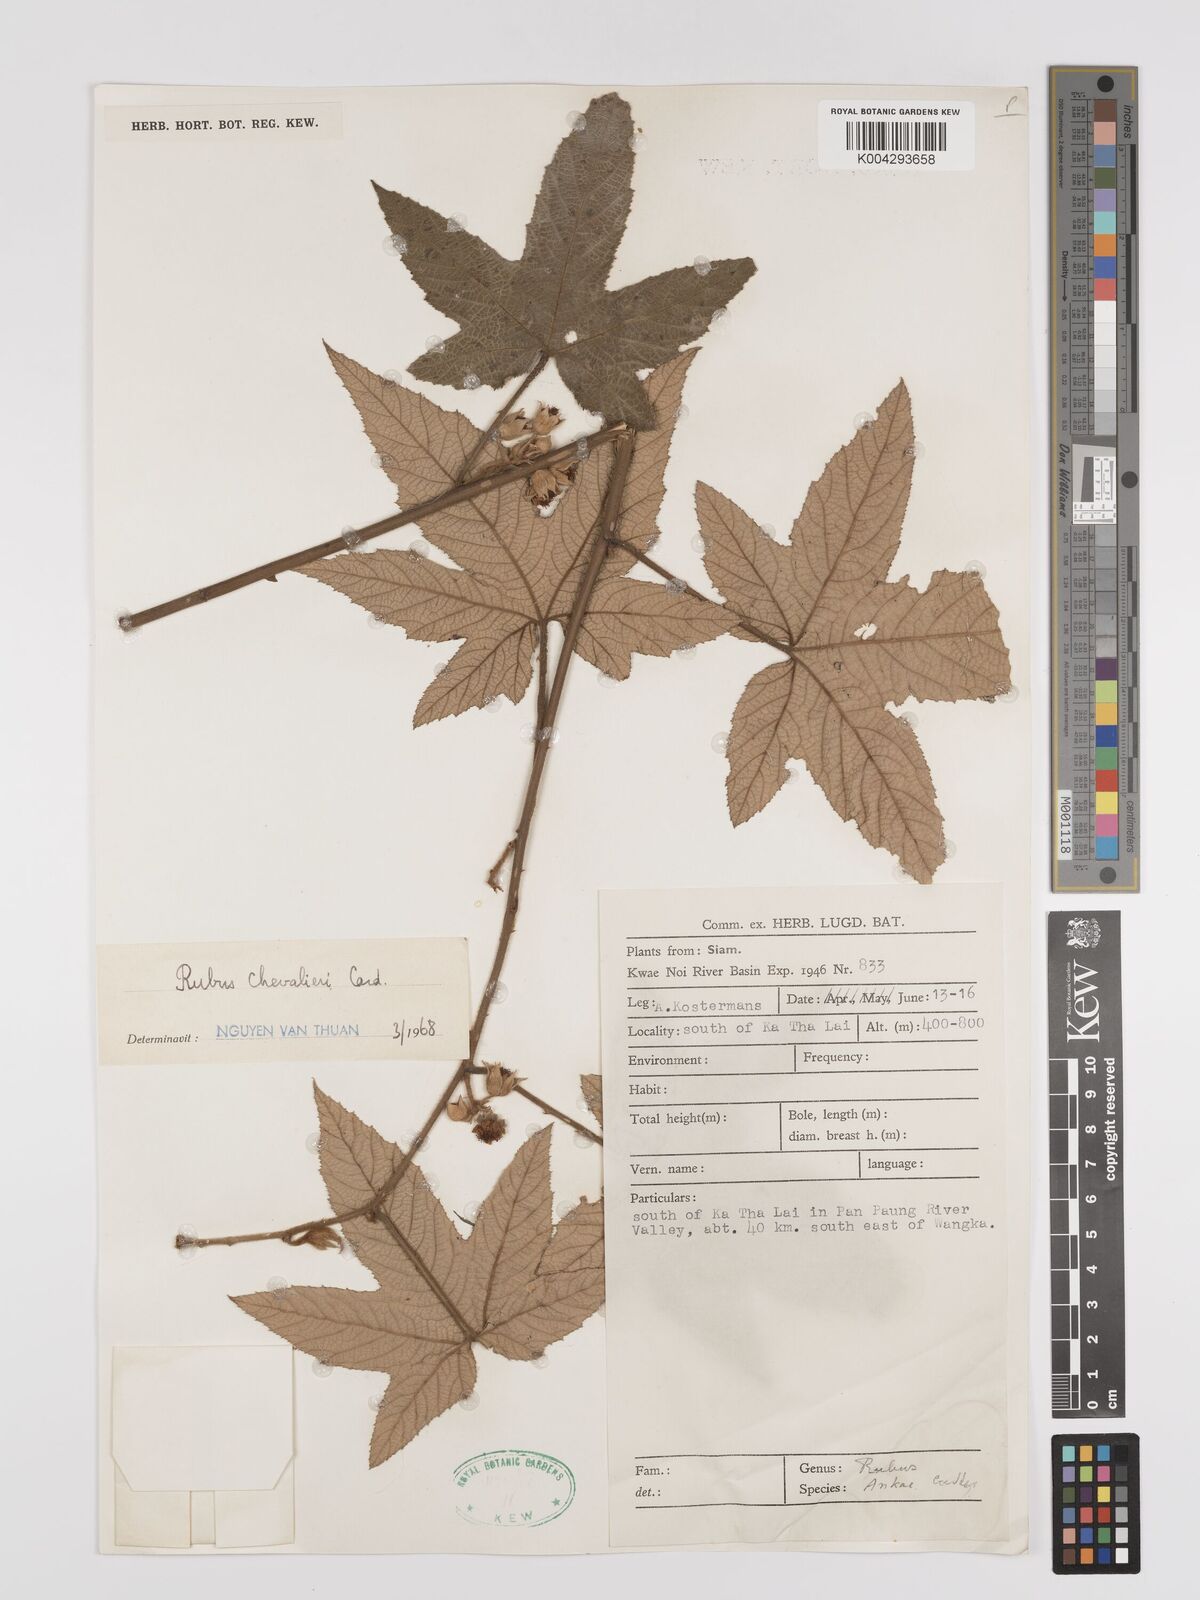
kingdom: Plantae
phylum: Tracheophyta
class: Magnoliopsida
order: Rosales
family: Rosaceae
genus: Rubus
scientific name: Rubus chevalieri
